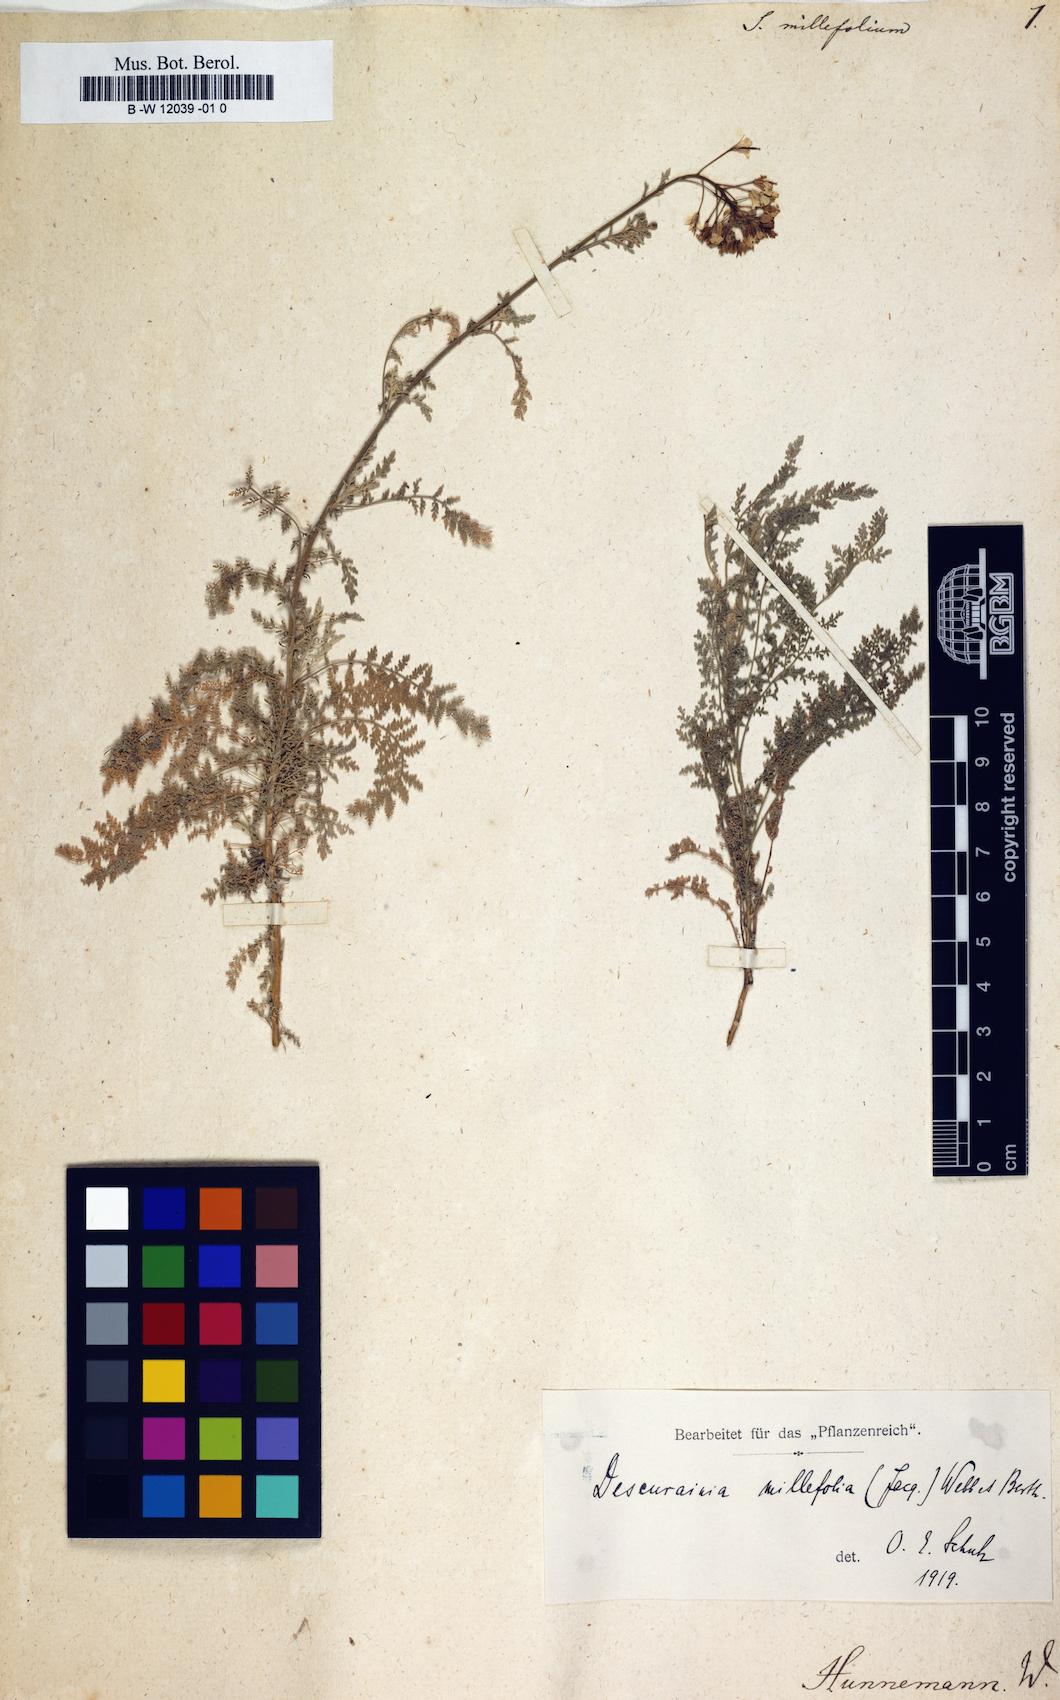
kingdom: Plantae
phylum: Tracheophyta
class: Magnoliopsida
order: Brassicales
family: Brassicaceae
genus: Hesperis
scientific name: Hesperis millefolia
